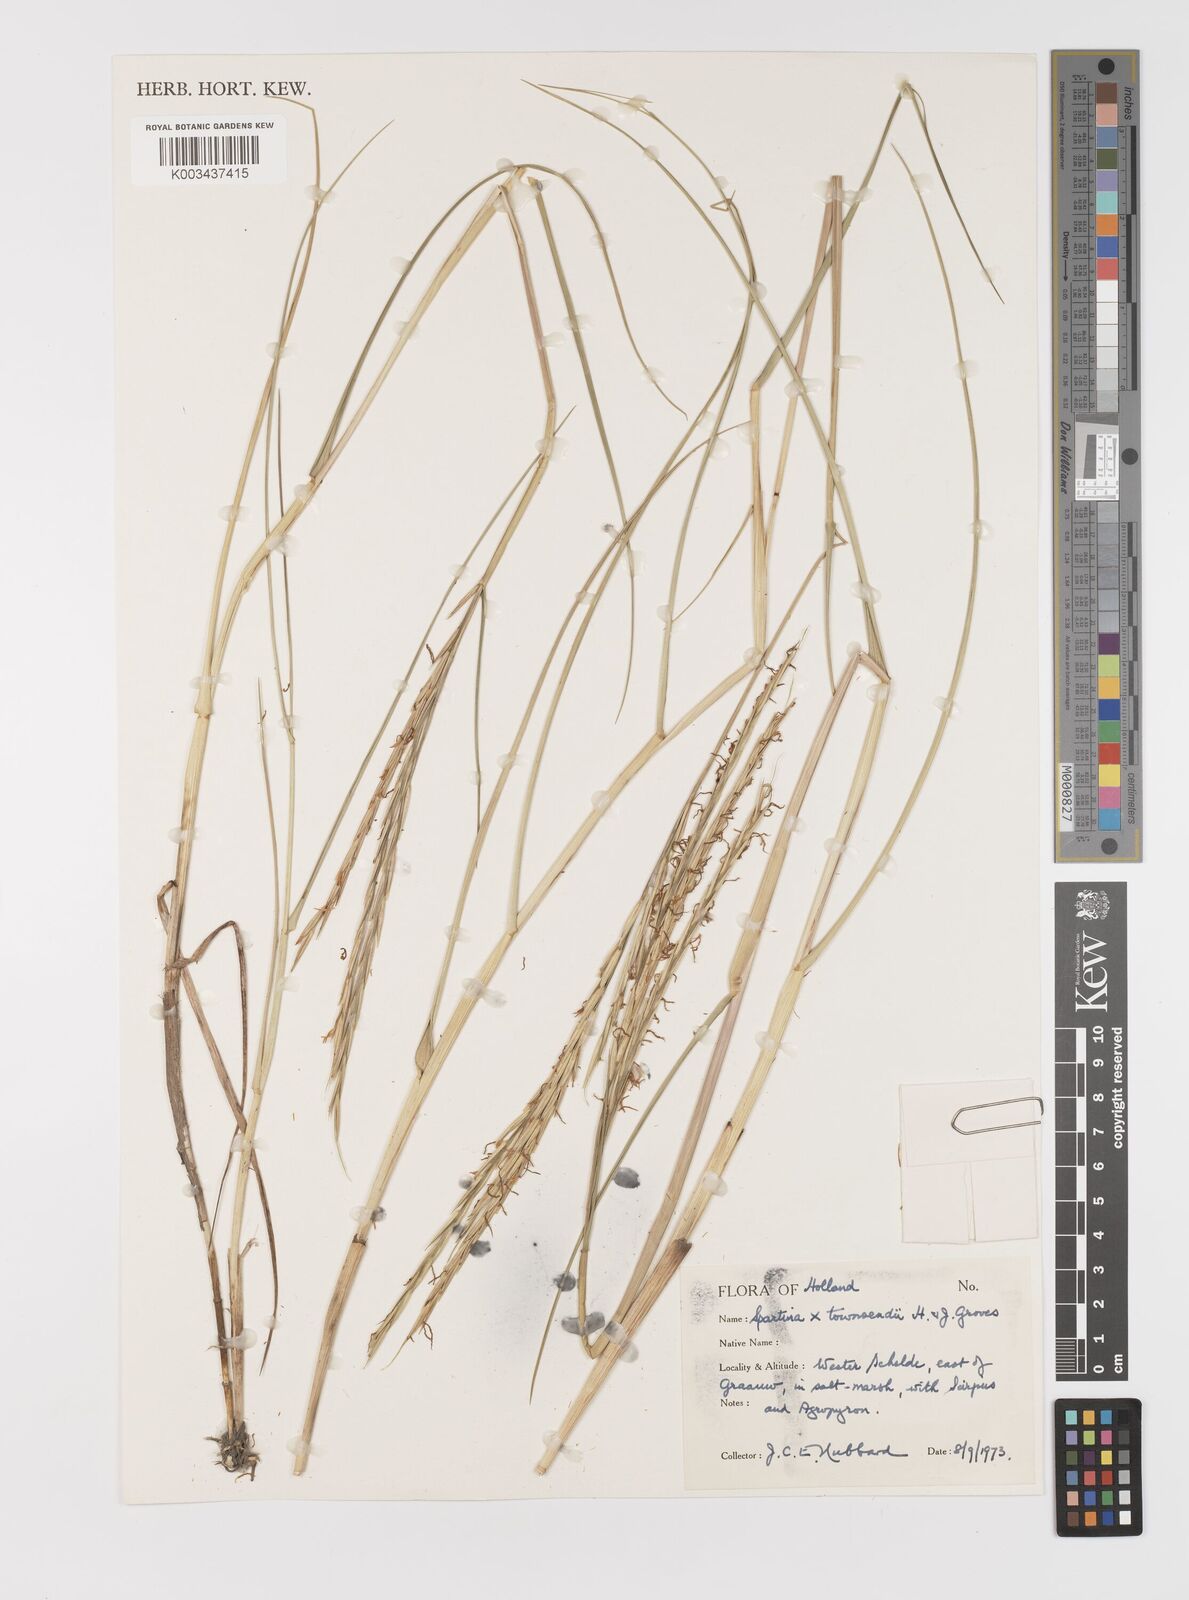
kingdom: Plantae
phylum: Tracheophyta
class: Liliopsida
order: Poales
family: Poaceae
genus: Sporobolus
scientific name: Sporobolus townsendii
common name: Townsend's cordgrass
